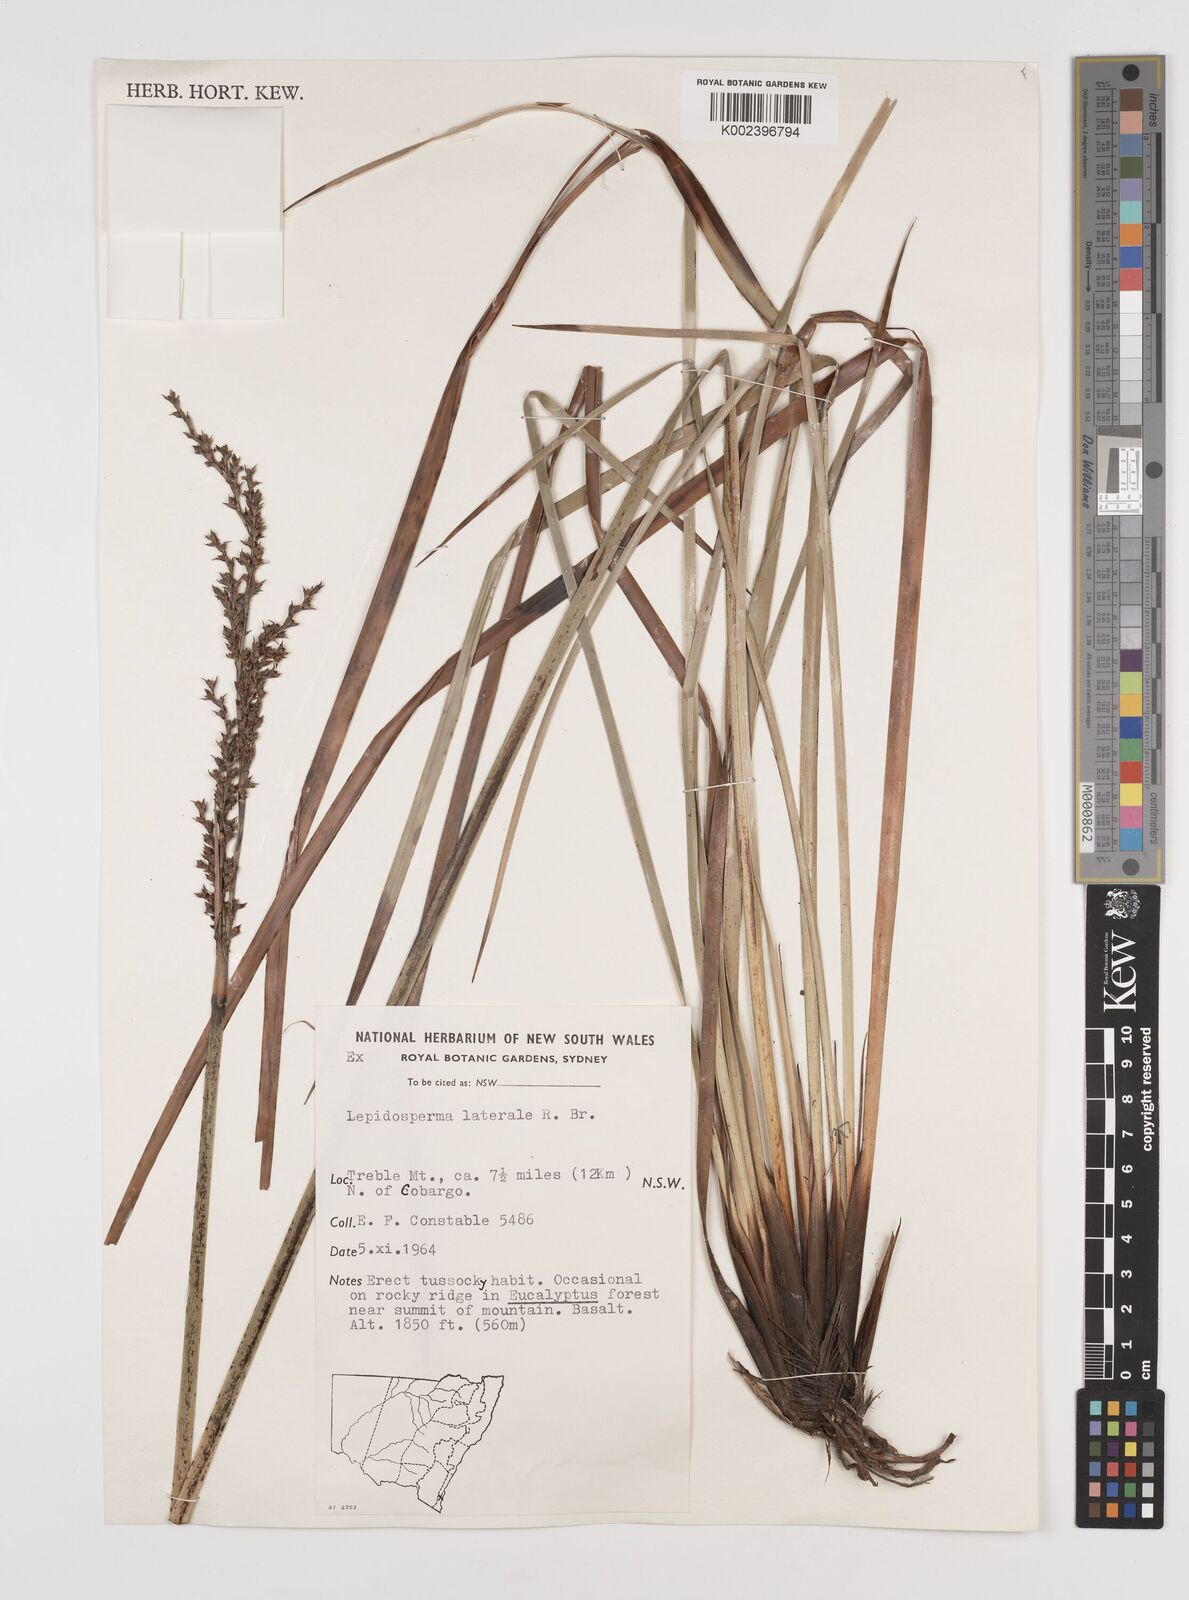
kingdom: Plantae
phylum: Tracheophyta
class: Liliopsida
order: Poales
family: Cyperaceae
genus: Lepidosperma
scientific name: Lepidosperma laterale
